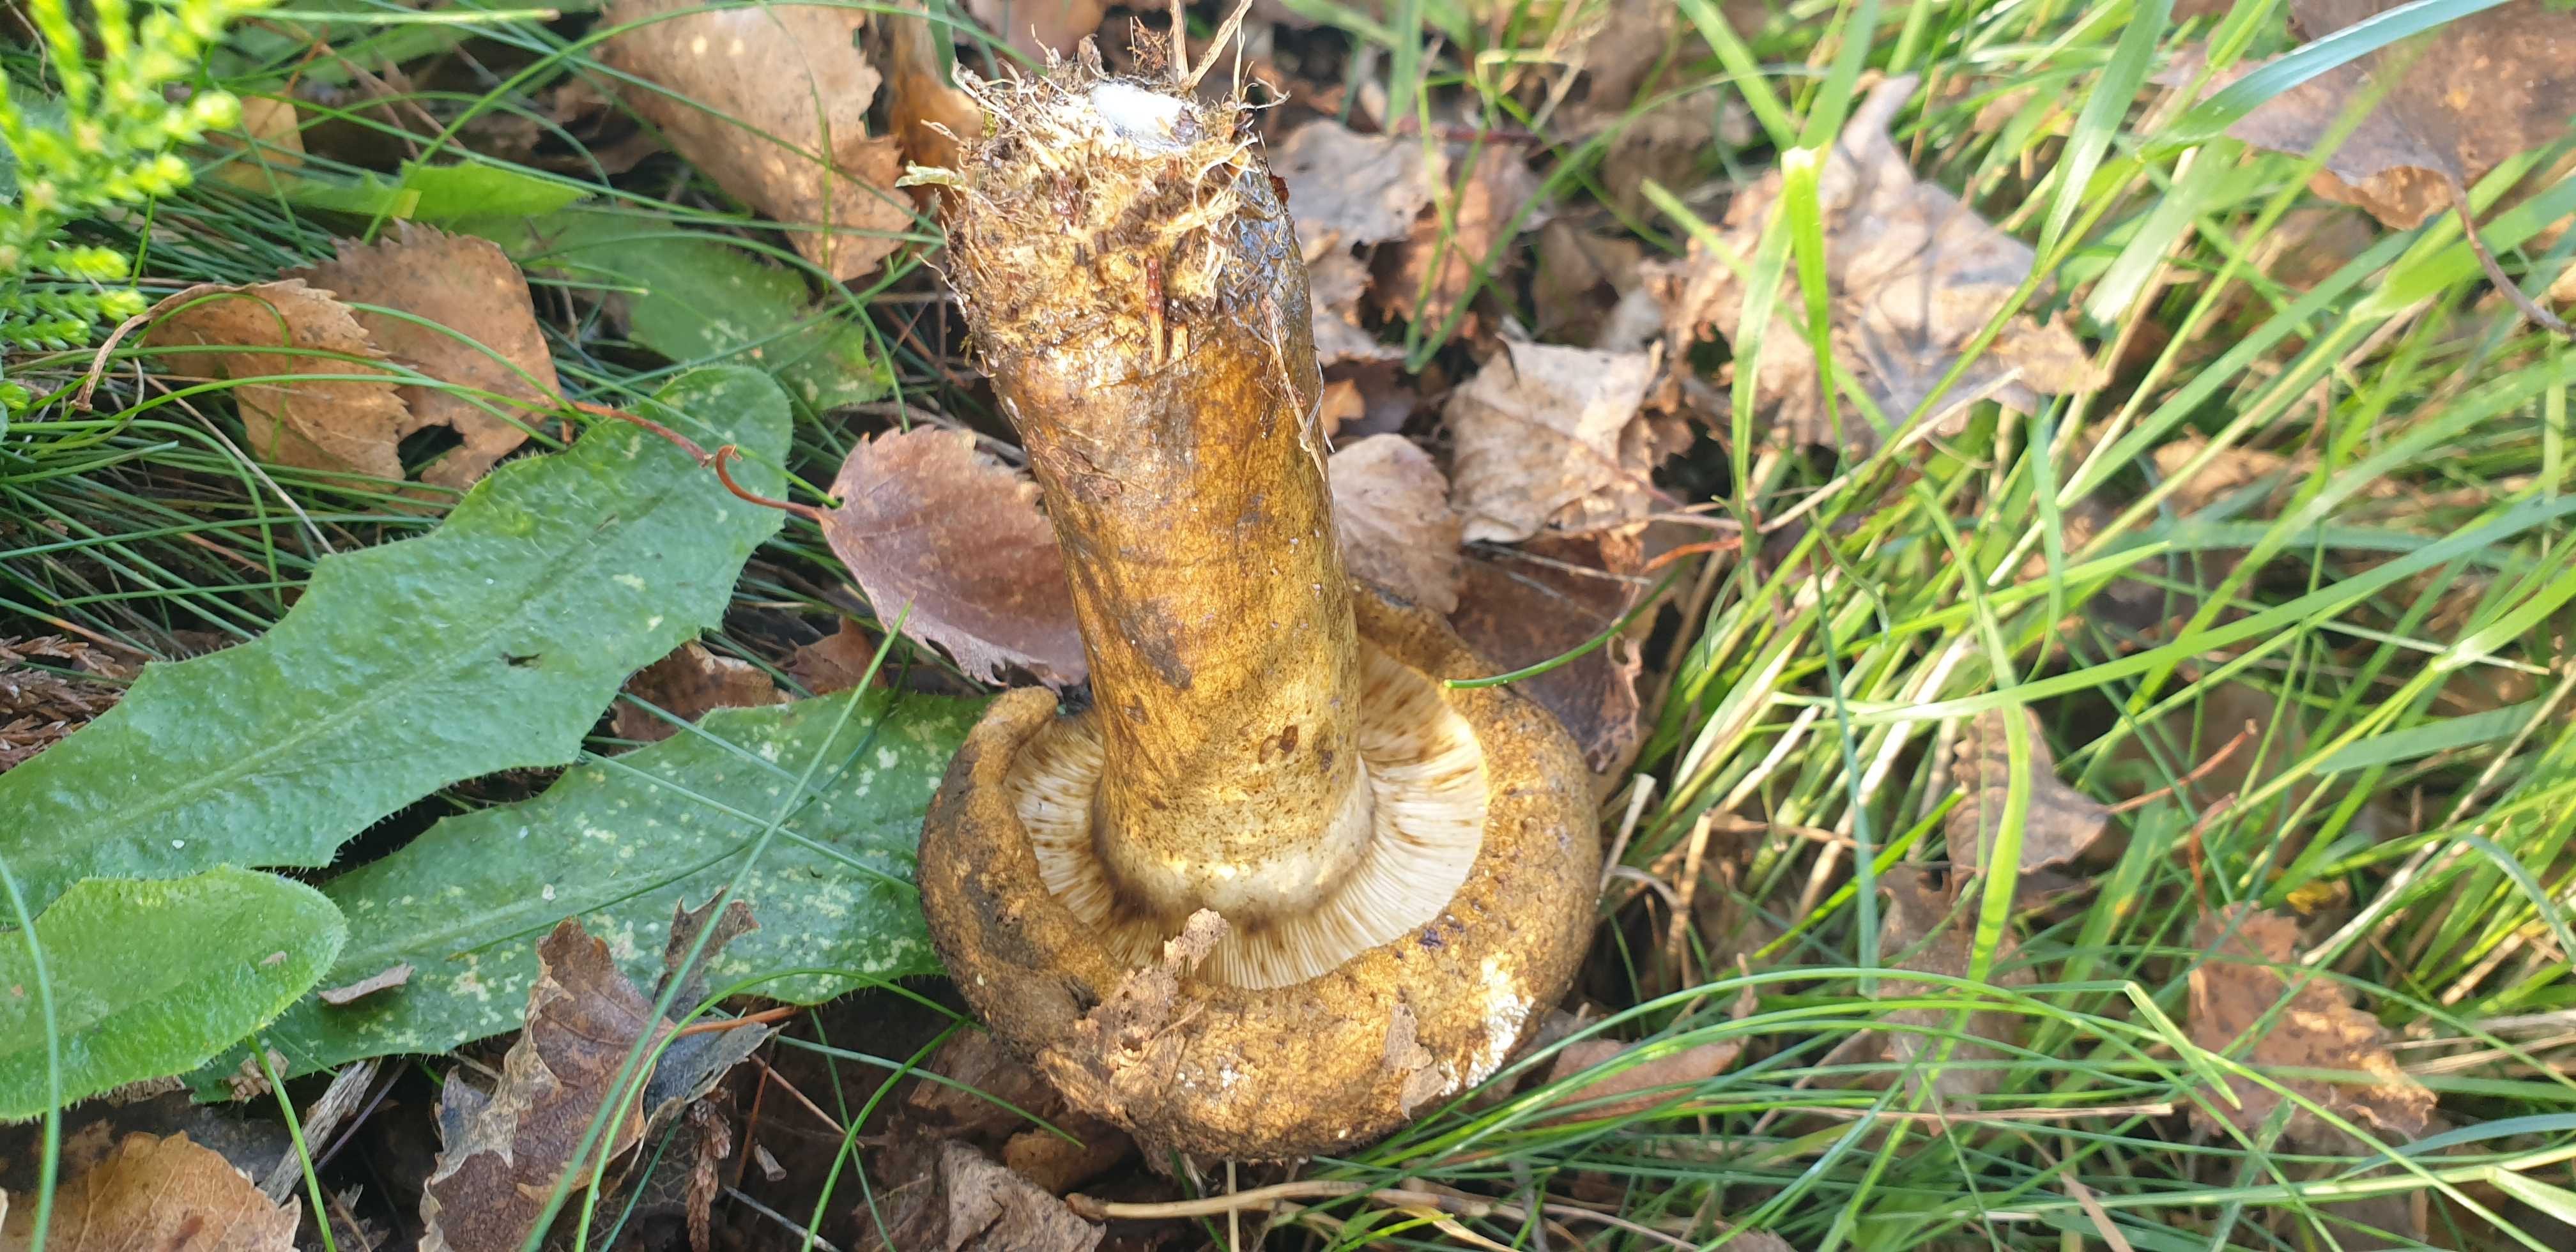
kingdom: Fungi
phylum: Basidiomycota
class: Agaricomycetes
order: Russulales
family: Russulaceae
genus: Lactarius
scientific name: Lactarius necator
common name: manddraber-mælkehat
